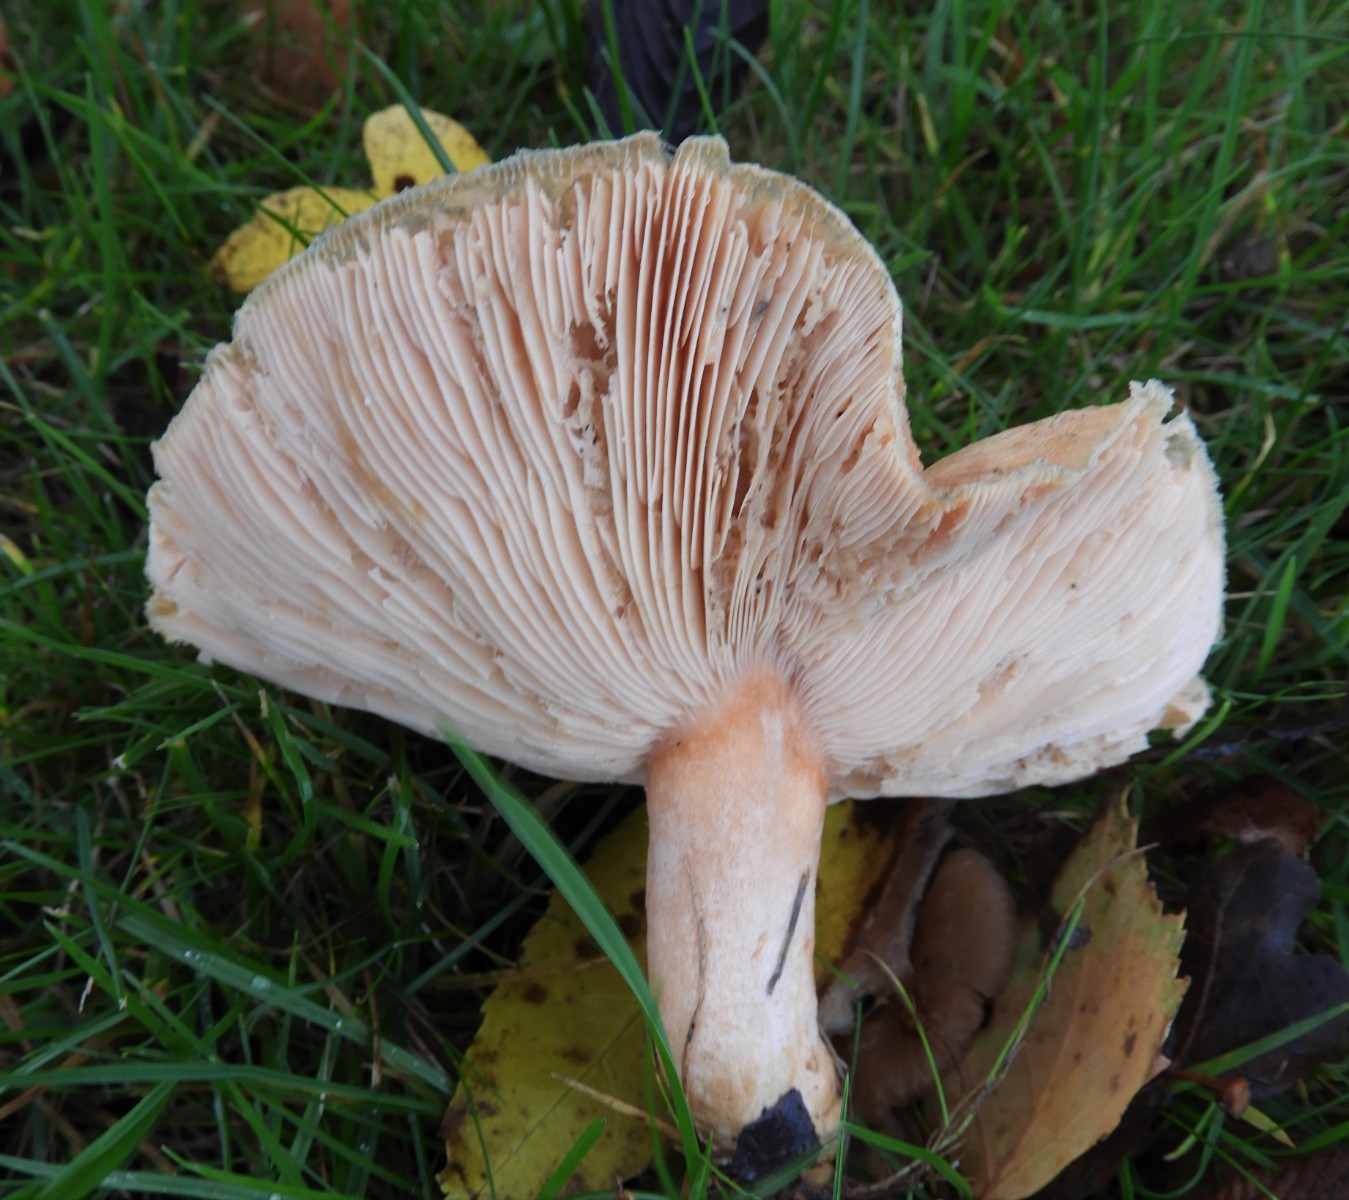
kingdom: Fungi
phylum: Basidiomycota
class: Agaricomycetes
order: Russulales
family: Russulaceae
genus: Lactarius
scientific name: Lactarius pubescens
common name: dunet mælkehat
